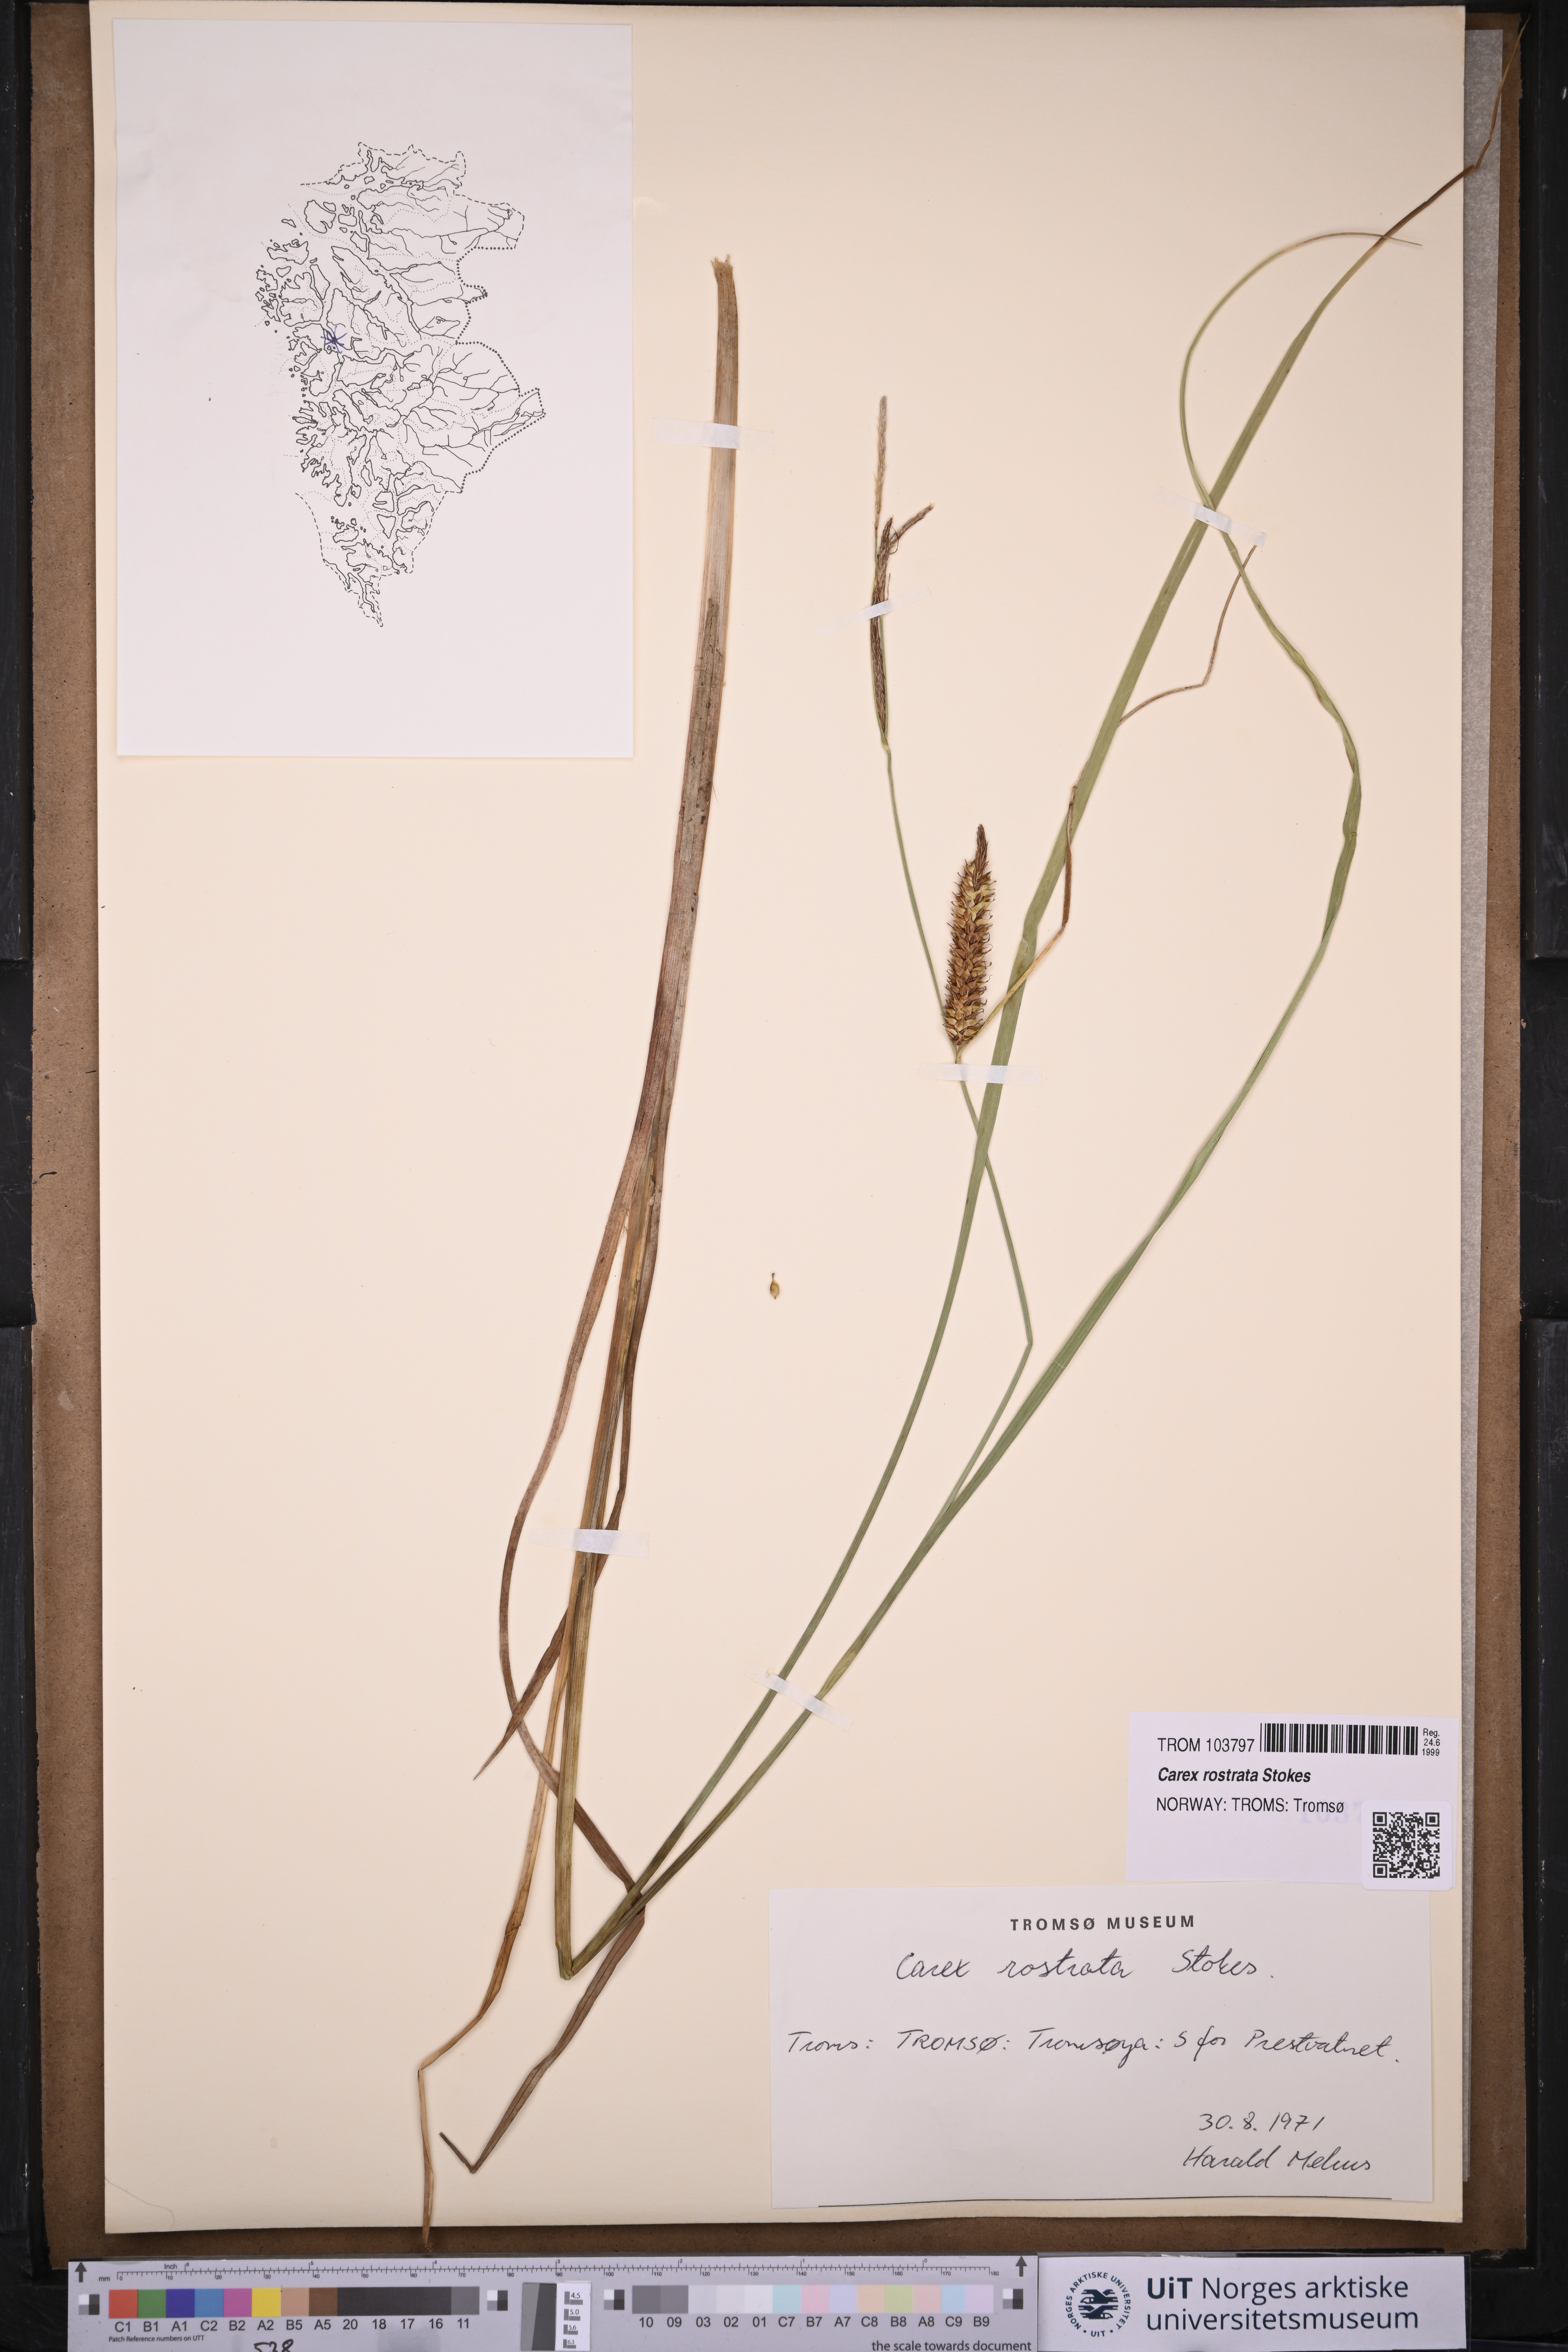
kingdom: Plantae
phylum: Tracheophyta
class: Liliopsida
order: Poales
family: Cyperaceae
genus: Carex
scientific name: Carex rostrata
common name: Bottle sedge
